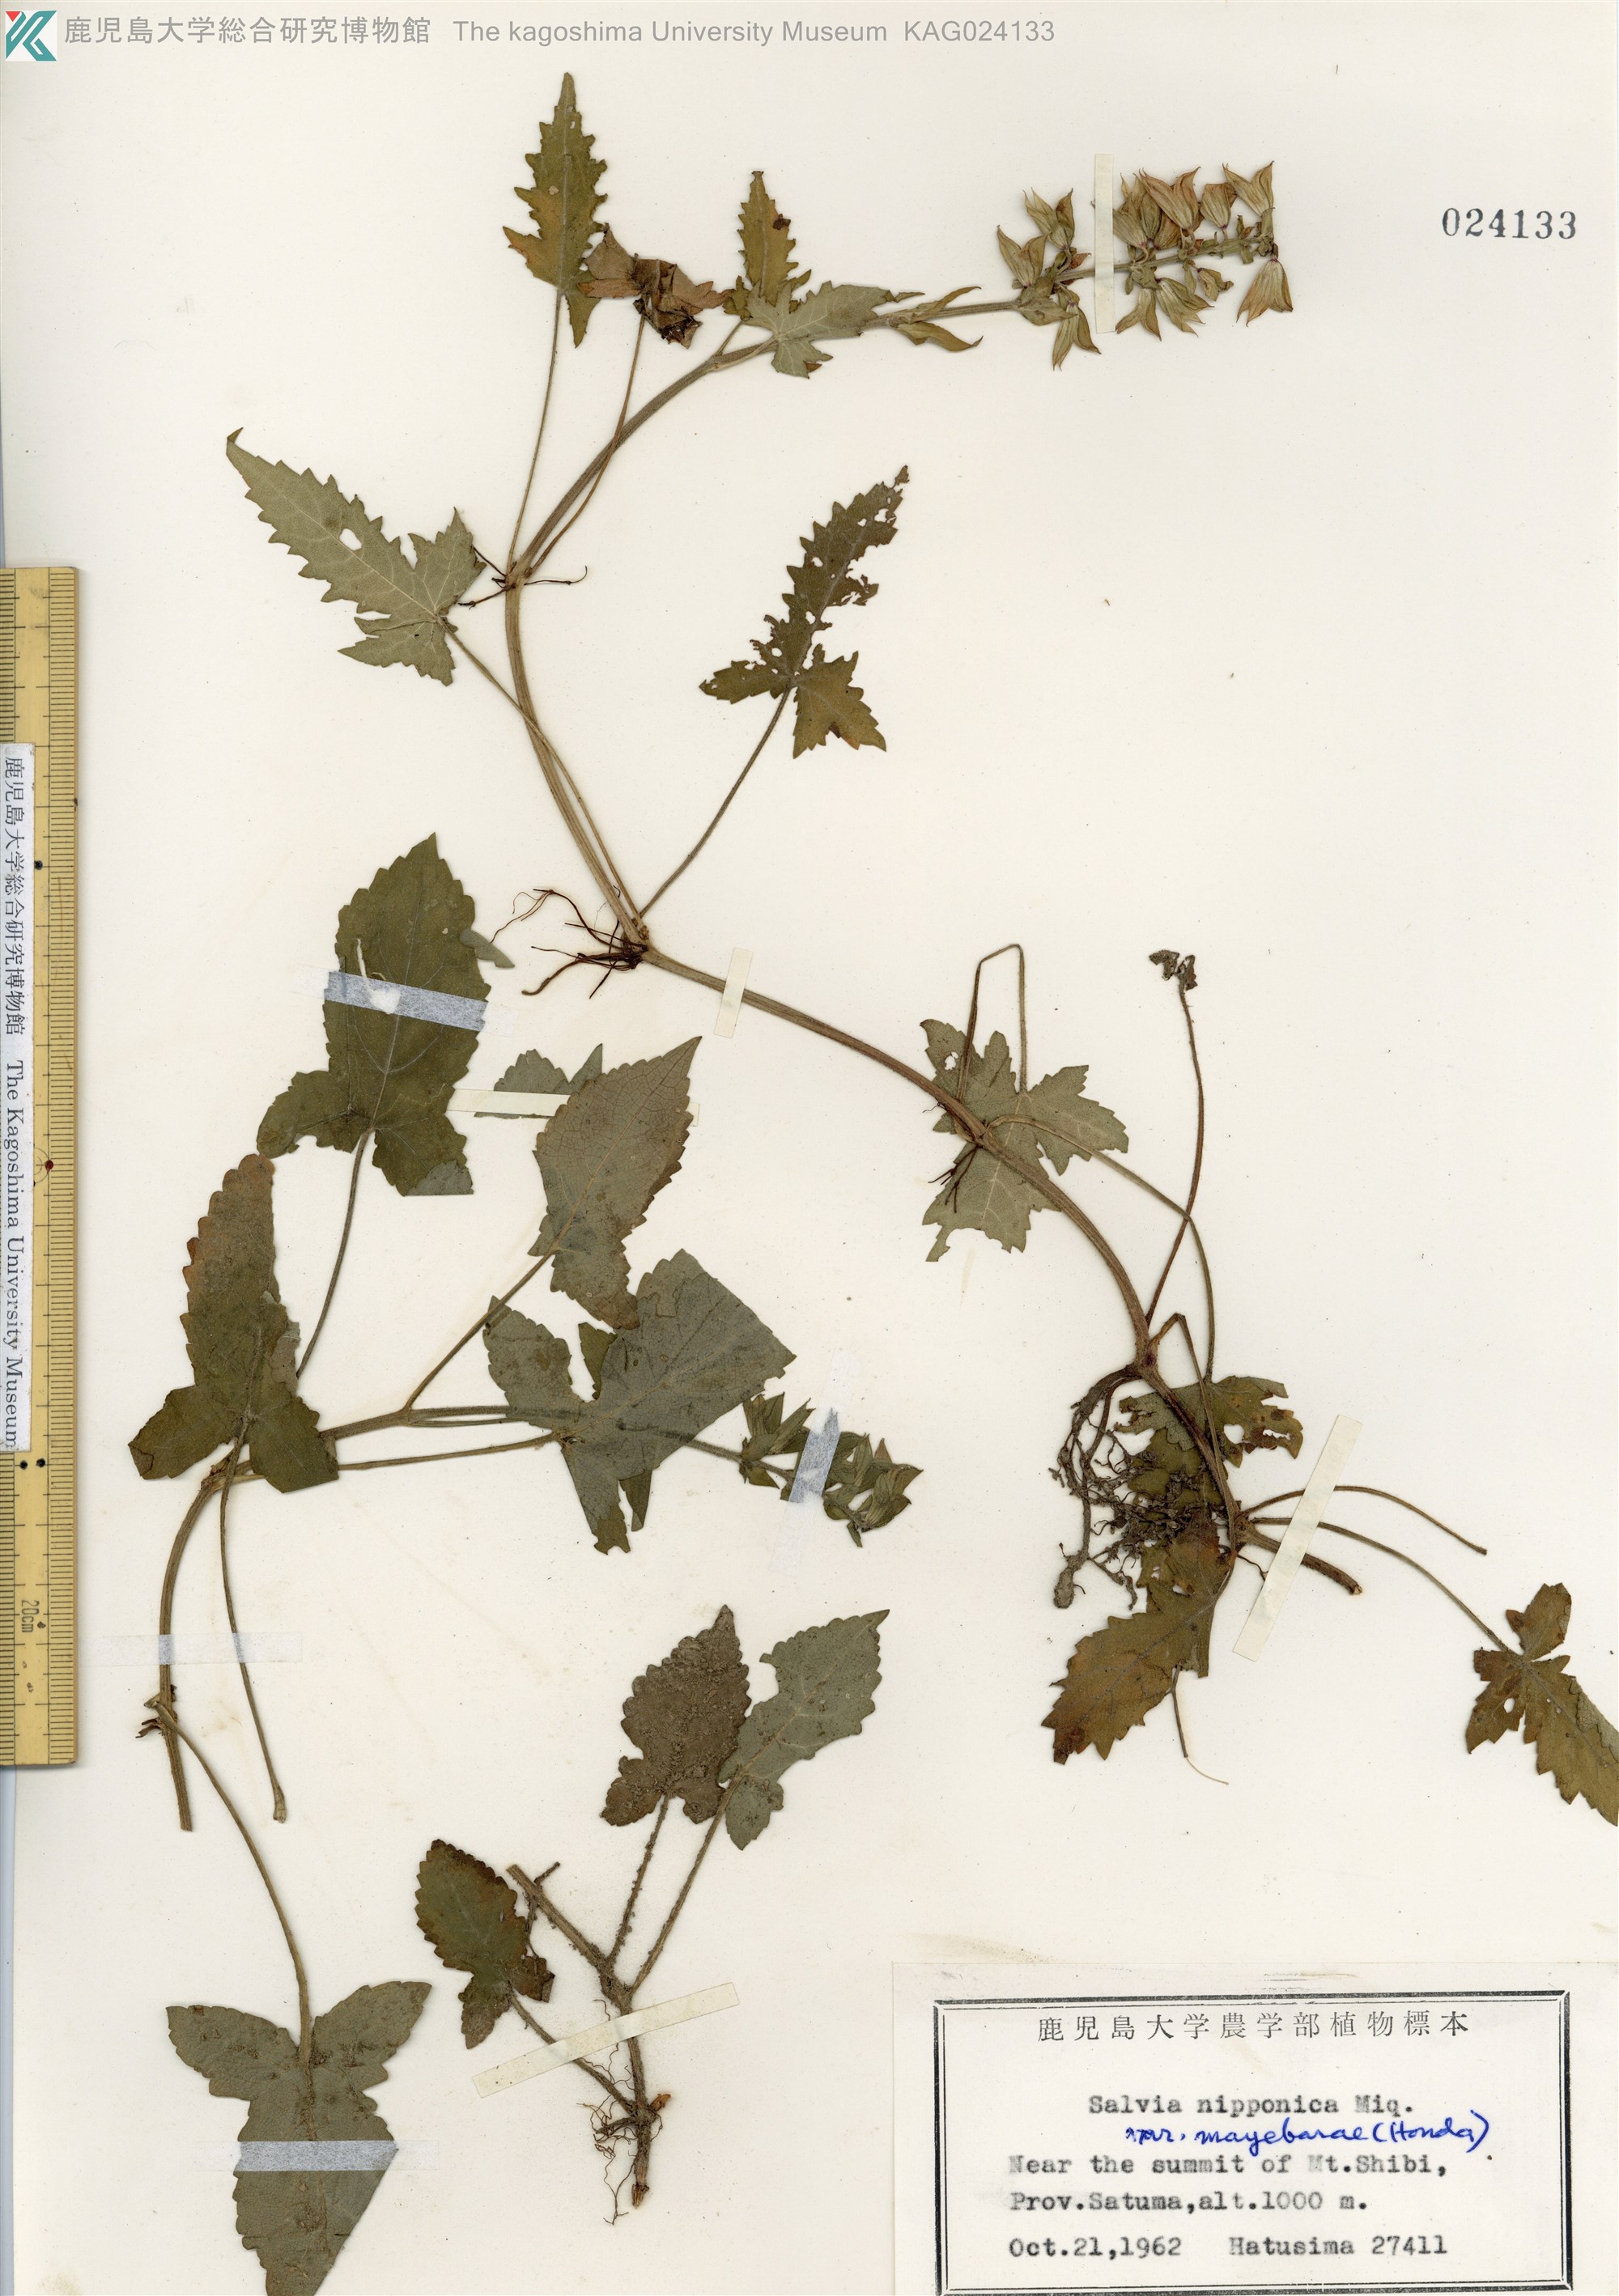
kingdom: Plantae
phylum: Tracheophyta
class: Magnoliopsida
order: Lamiales
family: Lamiaceae
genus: Salvia
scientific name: Salvia nipponica
